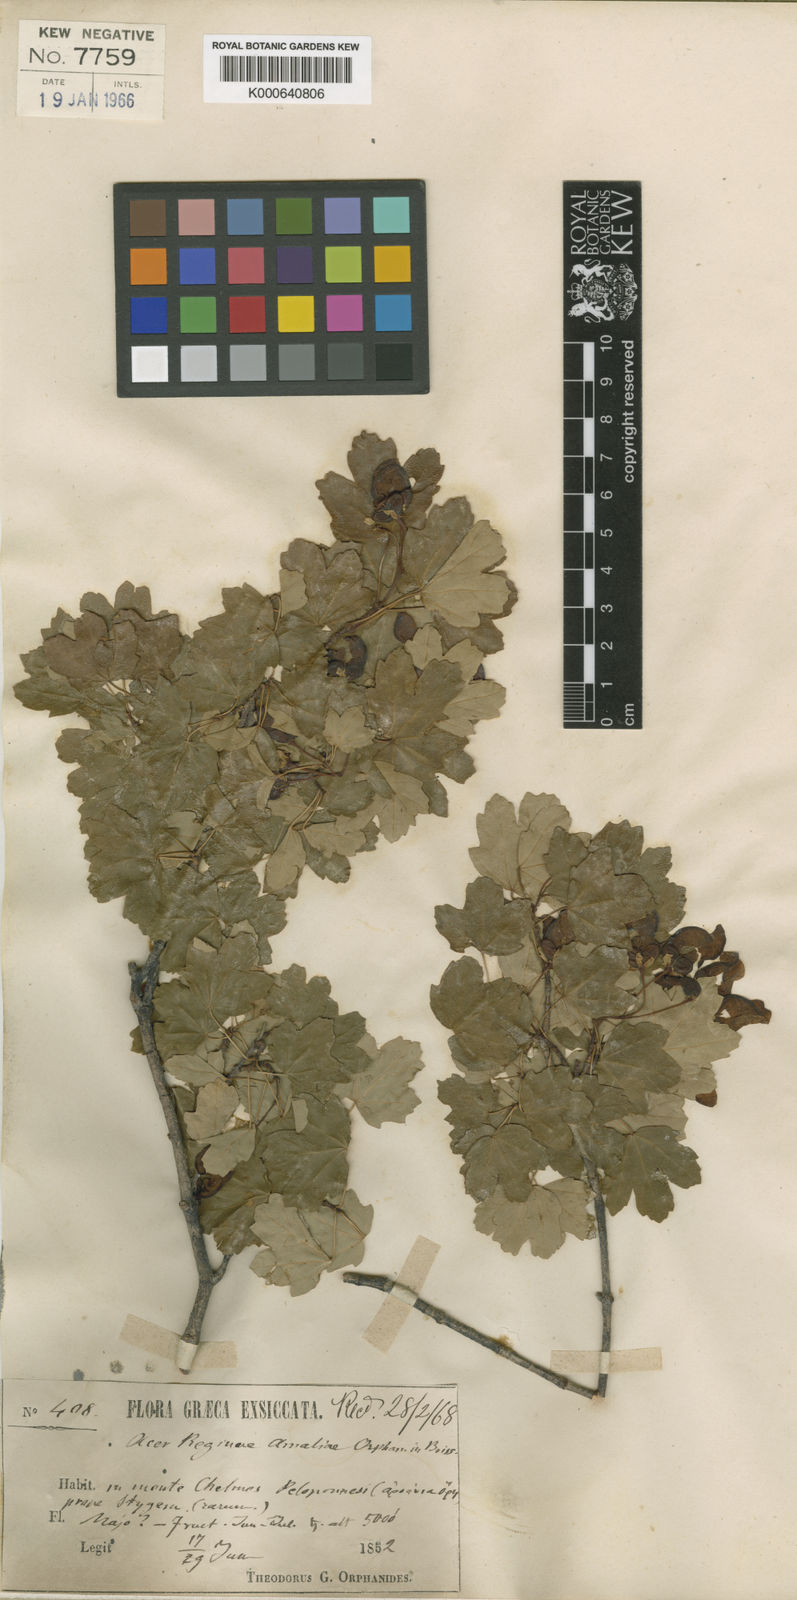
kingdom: Plantae
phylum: Tracheophyta
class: Magnoliopsida
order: Sapindales
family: Sapindaceae
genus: Acer
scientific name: Acer monspessulanum
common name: Montpellier maple
